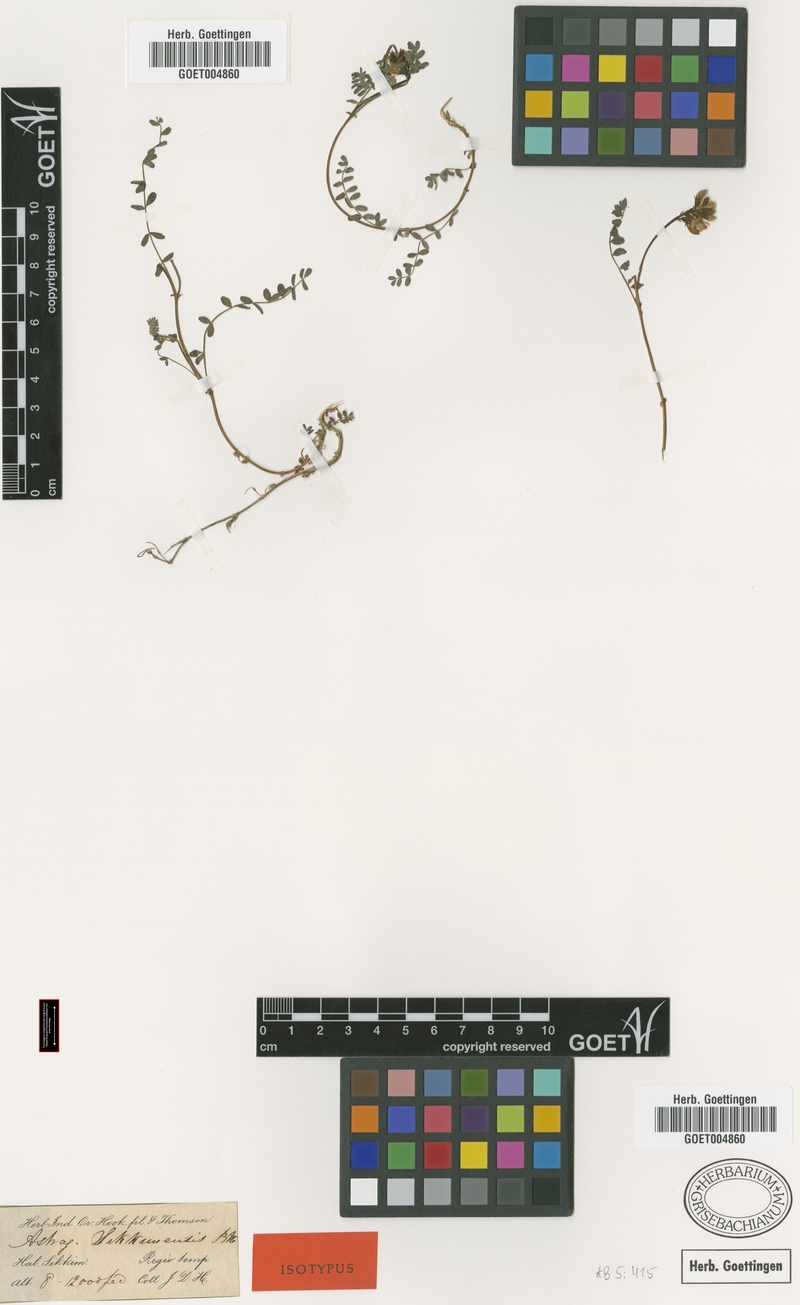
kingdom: Plantae
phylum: Tracheophyta
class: Magnoliopsida
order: Fabales
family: Fabaceae
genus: Astragalus
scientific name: Astragalus sikkimensis
